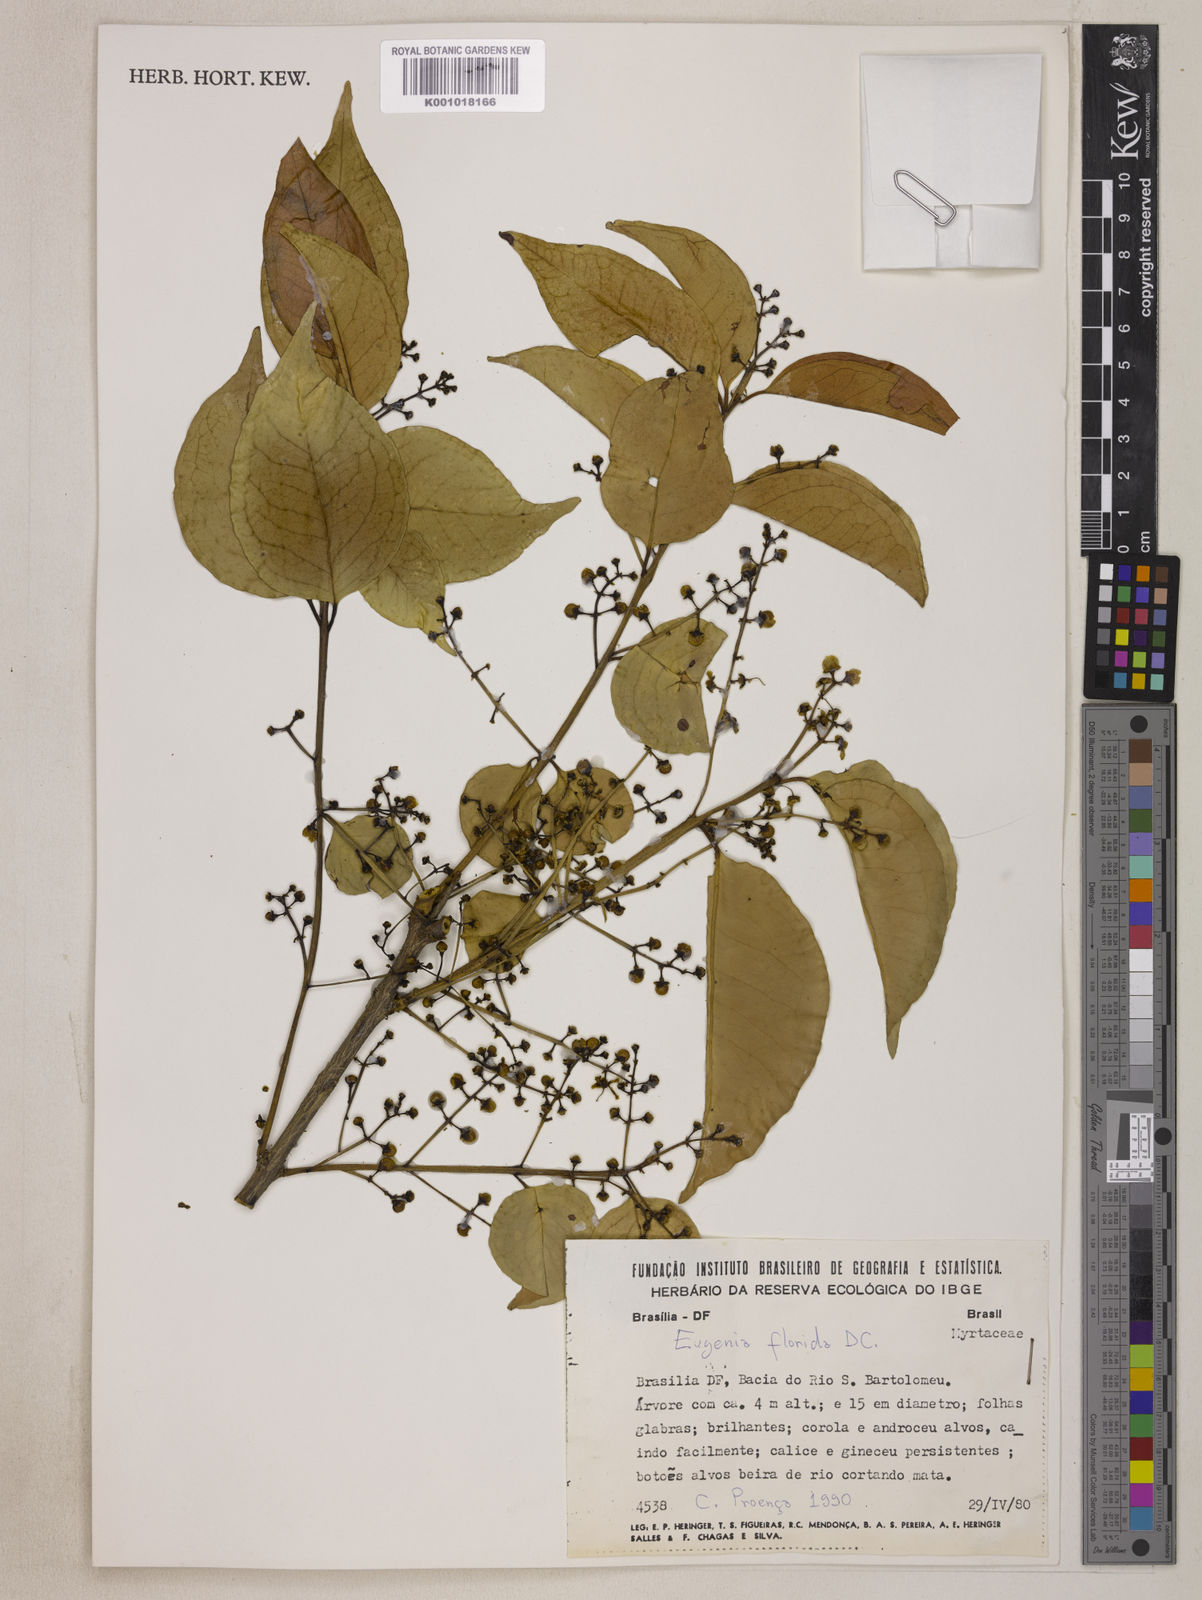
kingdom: Plantae
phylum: Tracheophyta
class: Magnoliopsida
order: Myrtales
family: Myrtaceae
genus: Eugenia
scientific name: Eugenia florida
